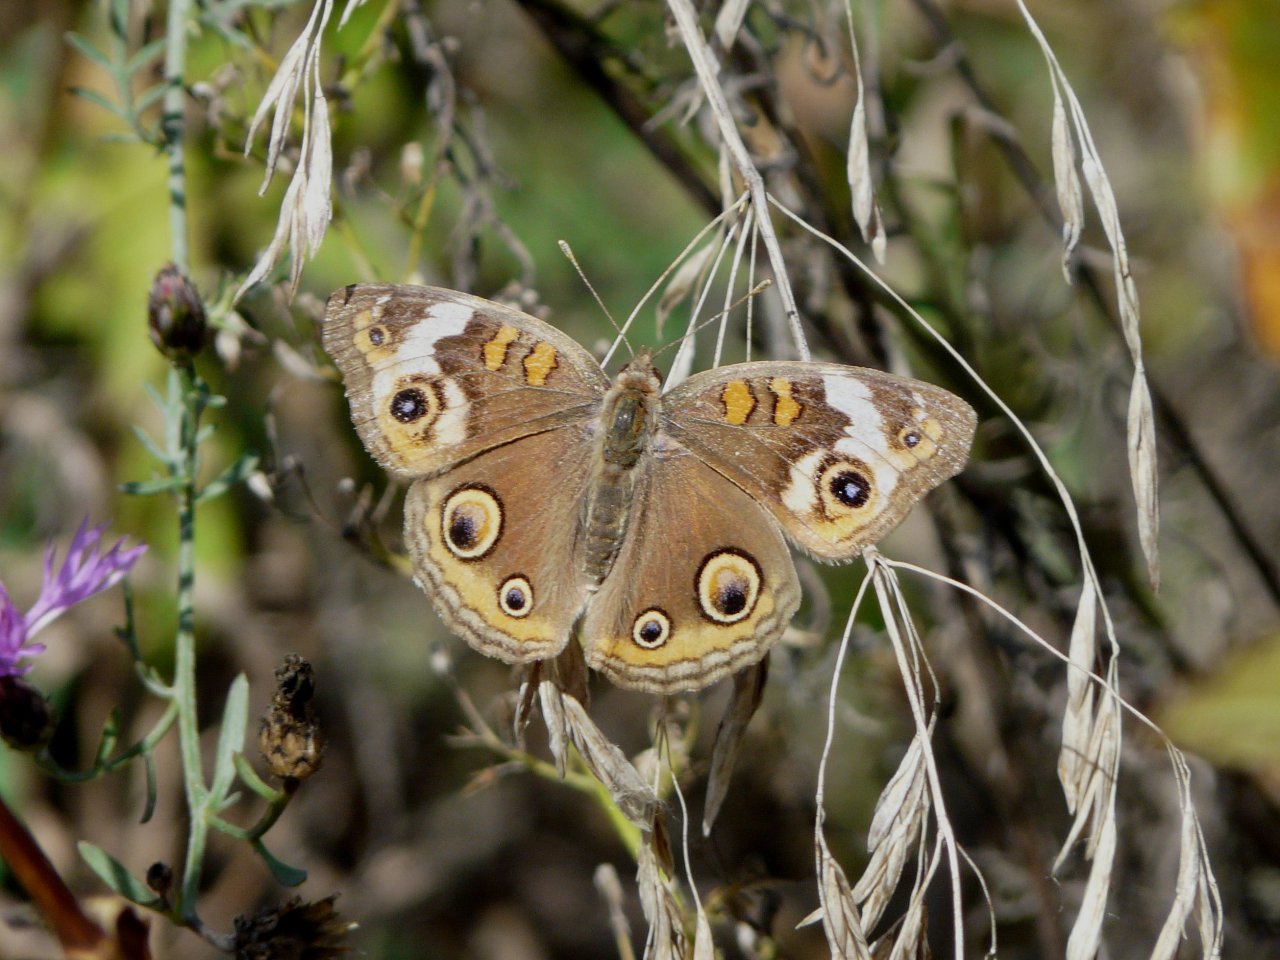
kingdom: Animalia
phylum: Arthropoda
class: Insecta
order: Lepidoptera
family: Nymphalidae
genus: Junonia
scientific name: Junonia coenia
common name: Common Buckeye
